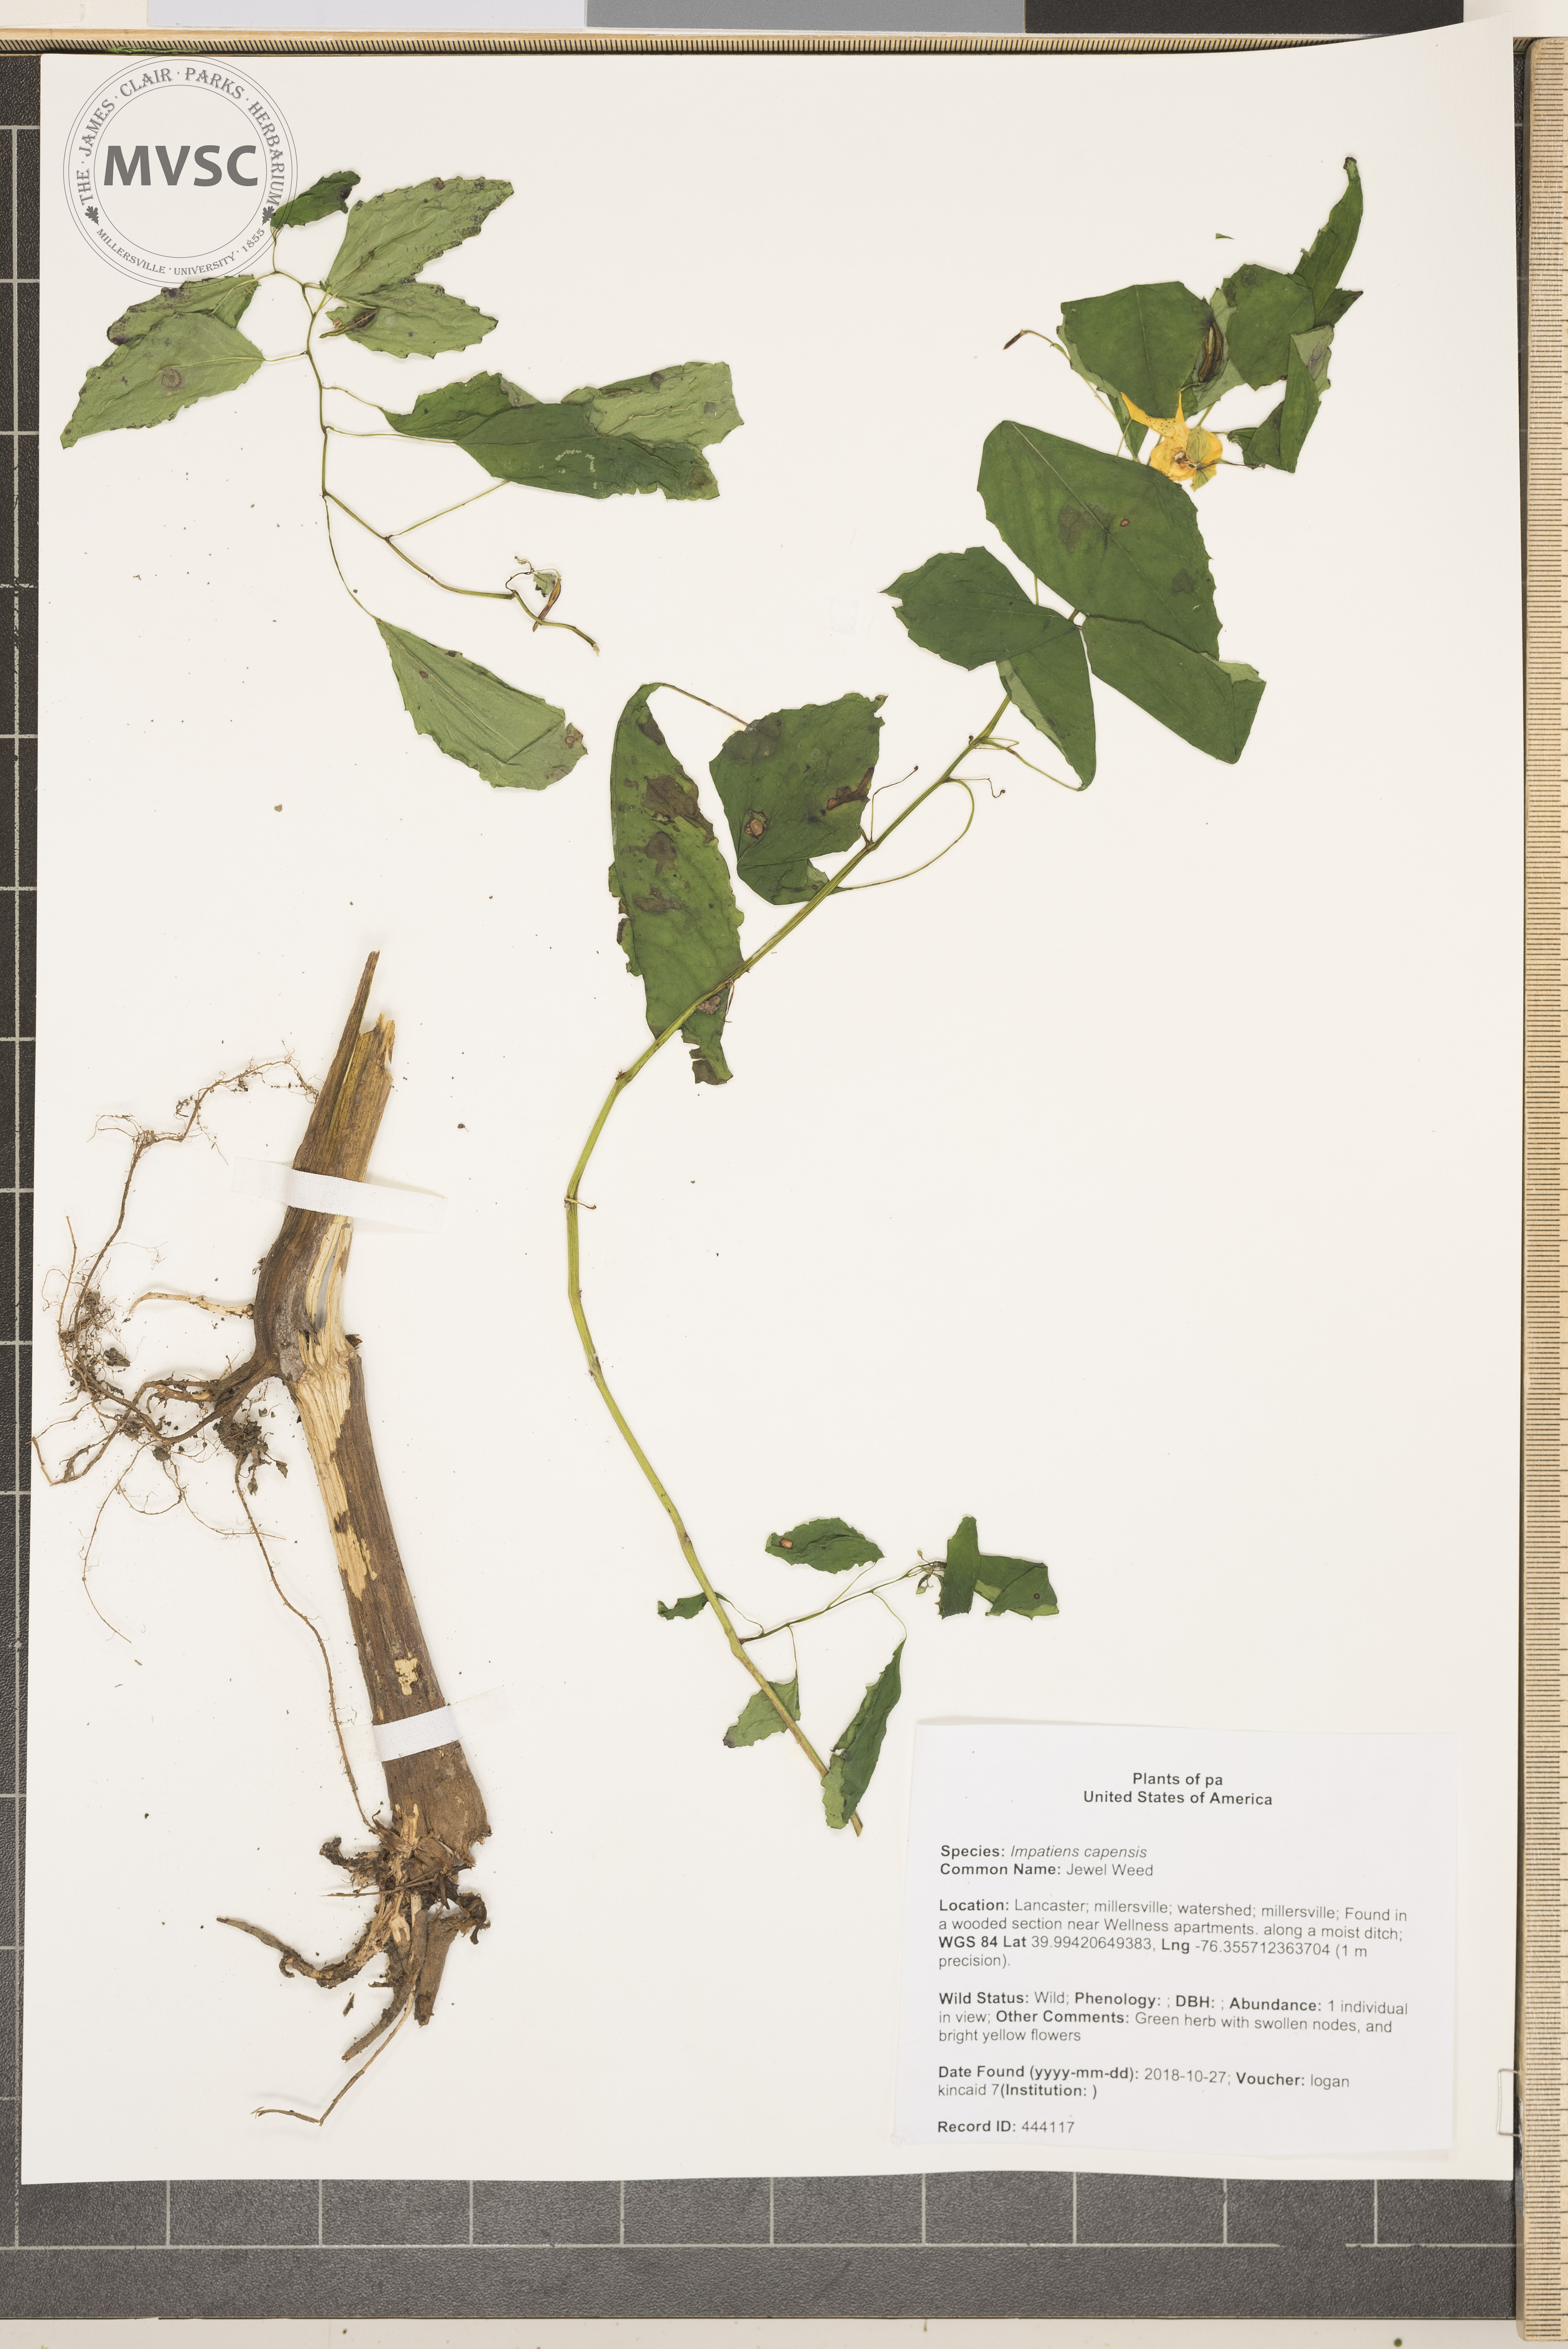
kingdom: Plantae
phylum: Tracheophyta
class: Magnoliopsida
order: Ericales
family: Balsaminaceae
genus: Impatiens
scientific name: Impatiens capensis
